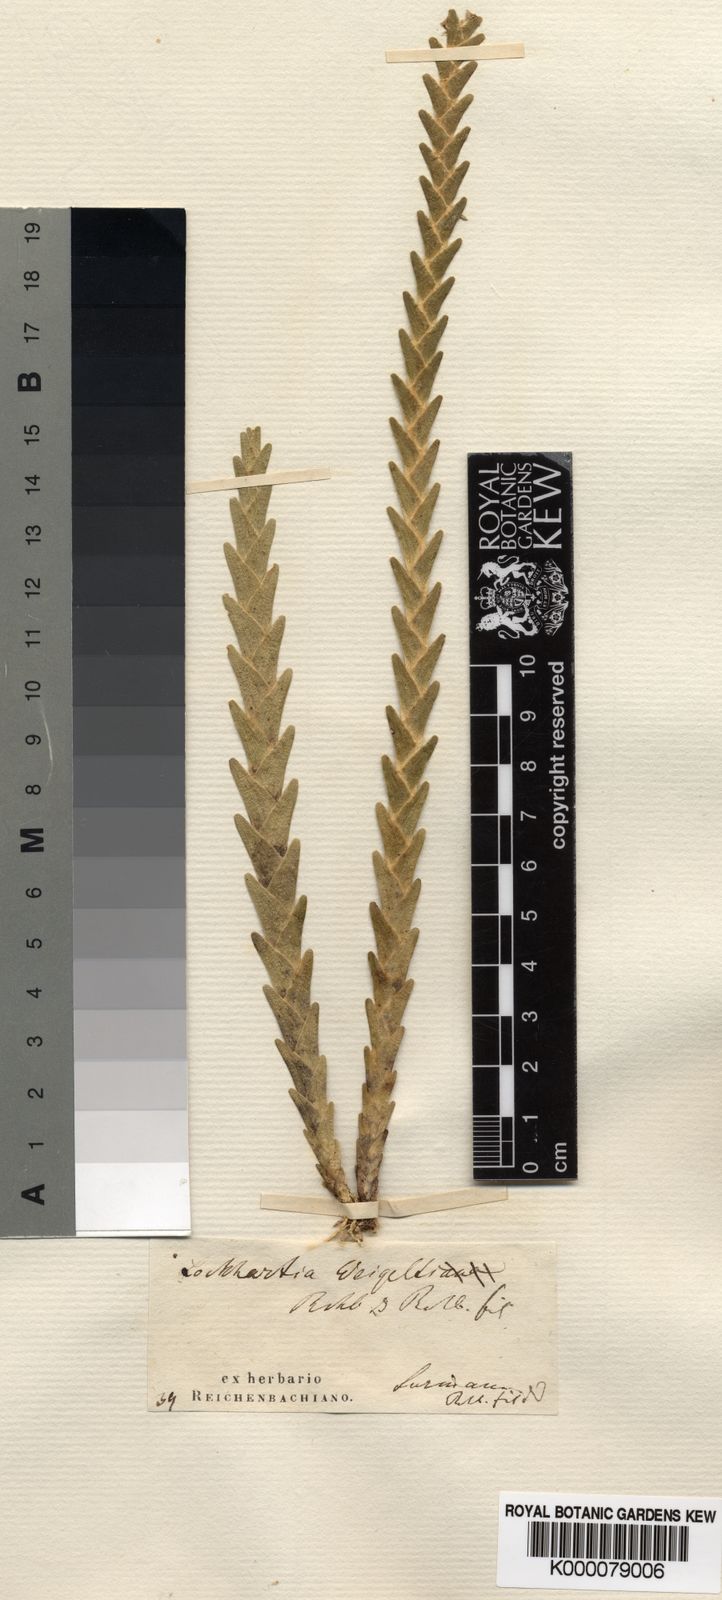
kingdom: Plantae
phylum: Tracheophyta
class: Liliopsida
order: Asparagales
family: Orchidaceae
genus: Lockhartia
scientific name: Lockhartia imbricata
